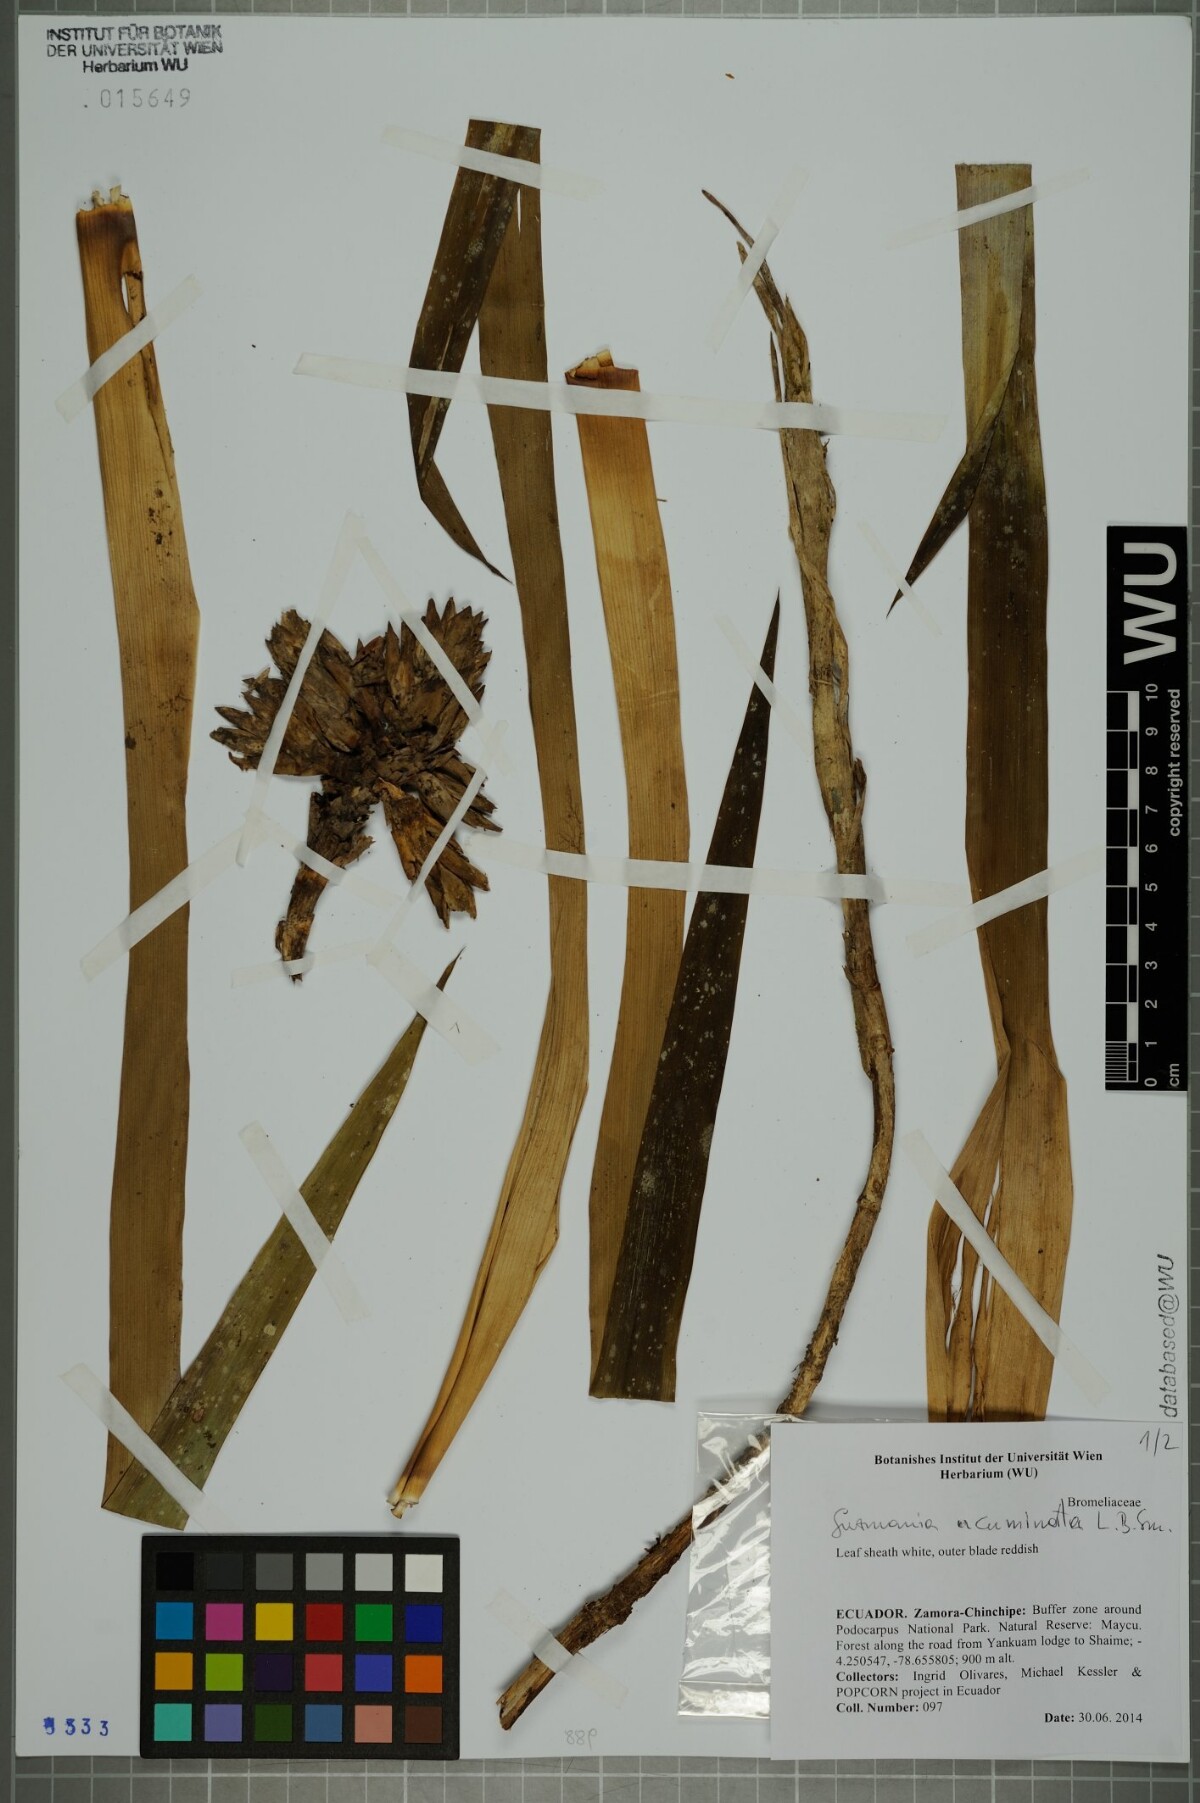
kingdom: Plantae
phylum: Tracheophyta
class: Liliopsida
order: Poales
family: Bromeliaceae
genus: Guzmania
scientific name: Guzmania acuminata
